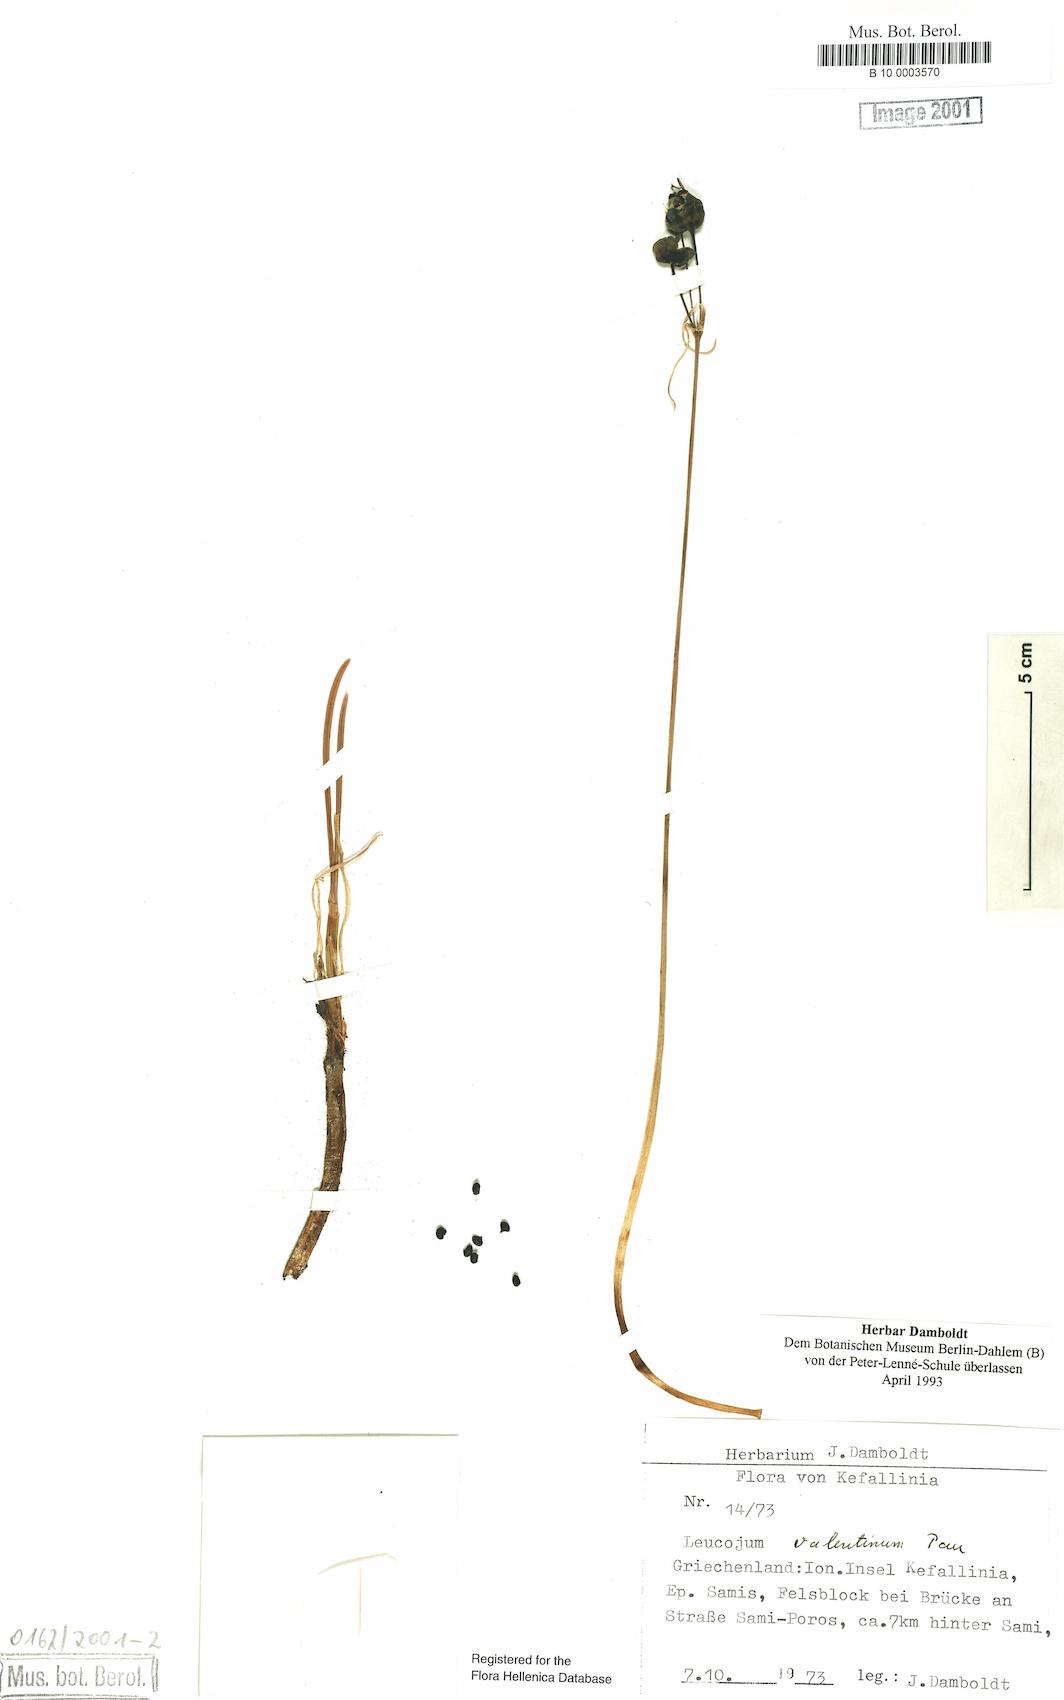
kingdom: Plantae
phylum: Tracheophyta
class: Liliopsida
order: Asparagales
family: Amaryllidaceae
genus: Acis
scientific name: Acis valentina
